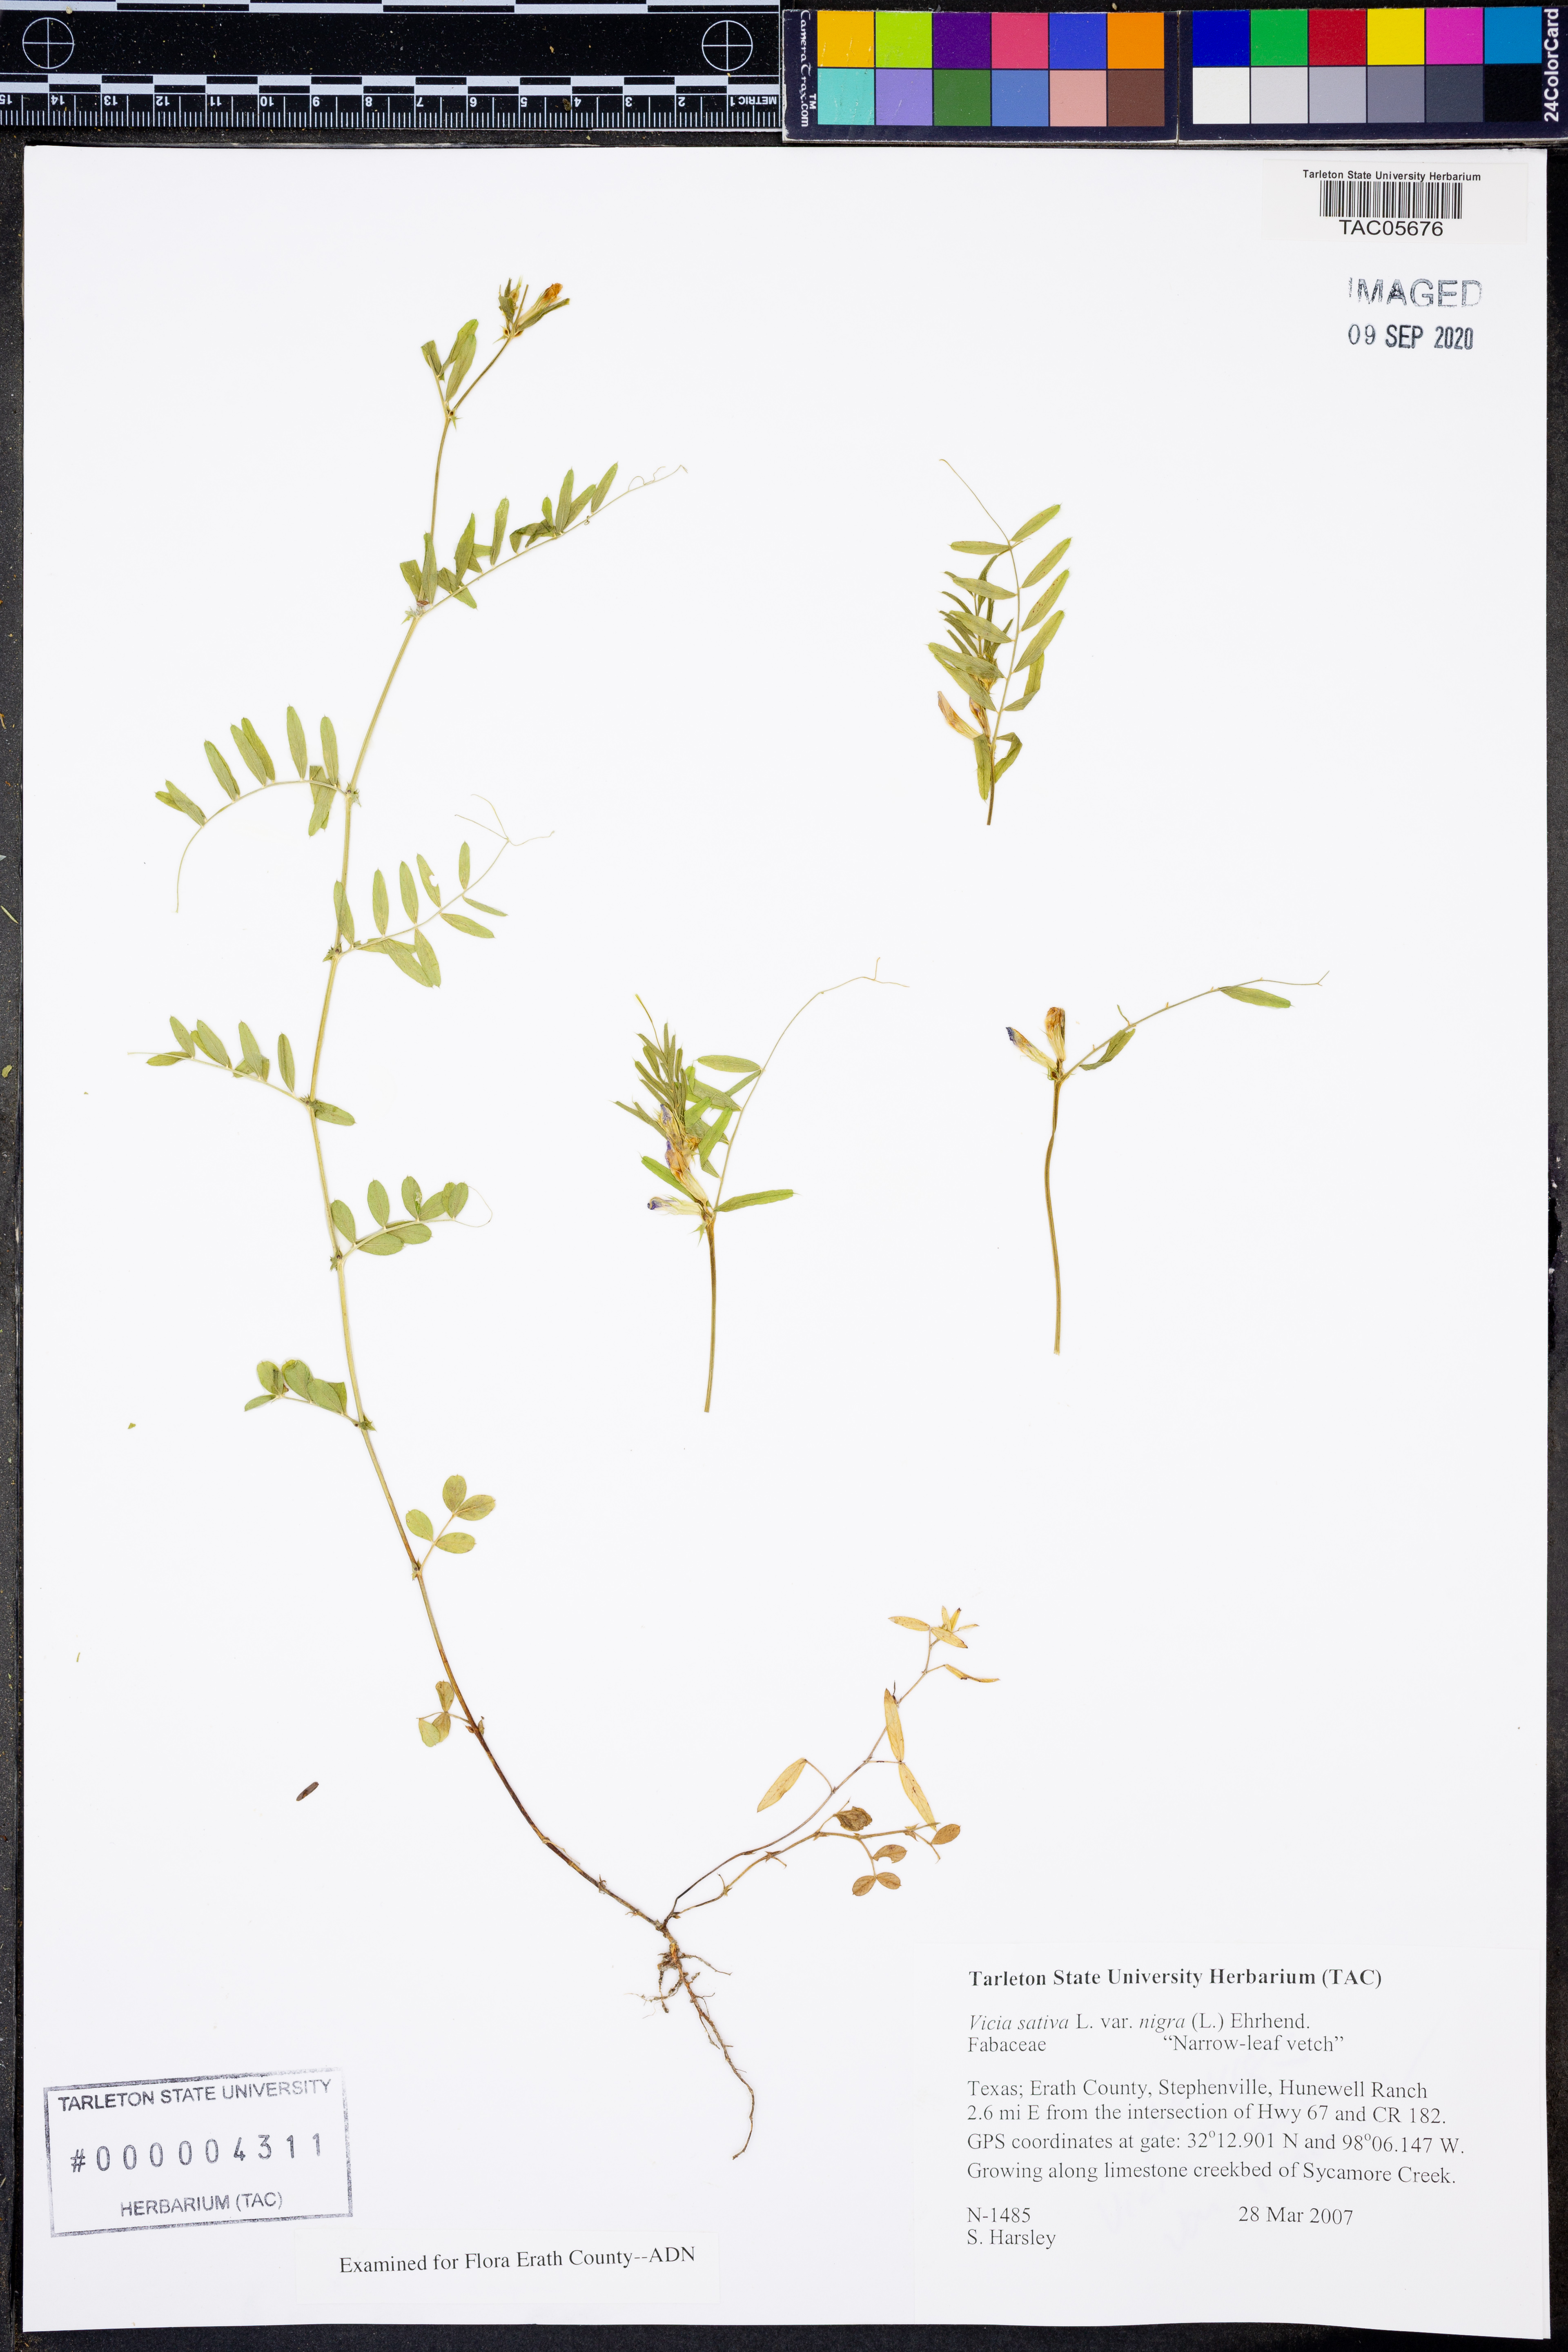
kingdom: Plantae
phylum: Tracheophyta
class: Magnoliopsida
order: Fabales
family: Fabaceae
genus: Vicia
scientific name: Vicia sativa
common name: Garden vetch
